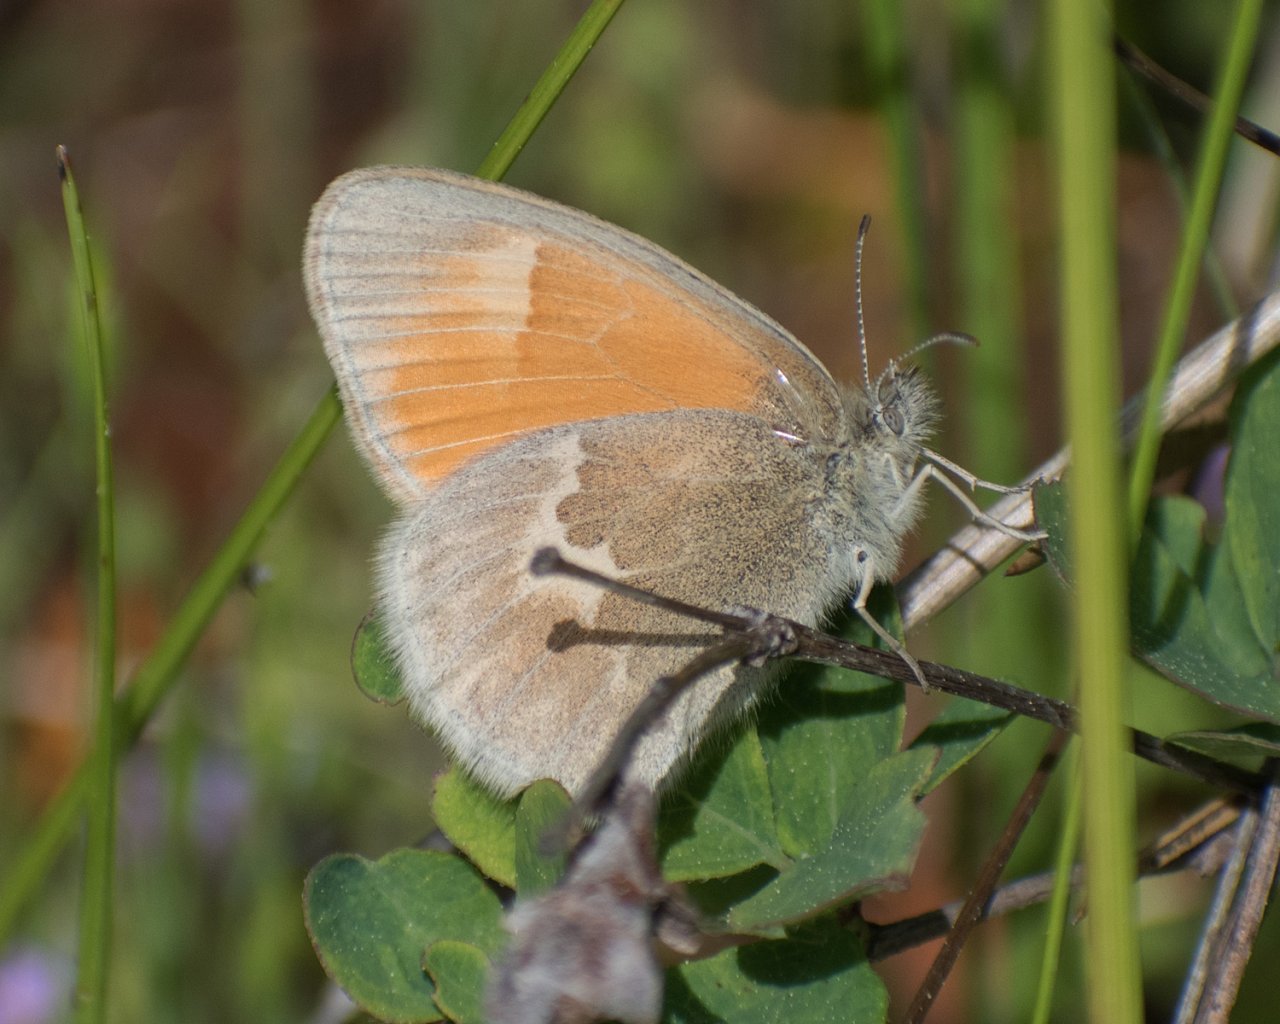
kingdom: Animalia
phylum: Arthropoda
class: Insecta
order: Lepidoptera
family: Nymphalidae
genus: Coenonympha
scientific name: Coenonympha tullia
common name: Large Heath
